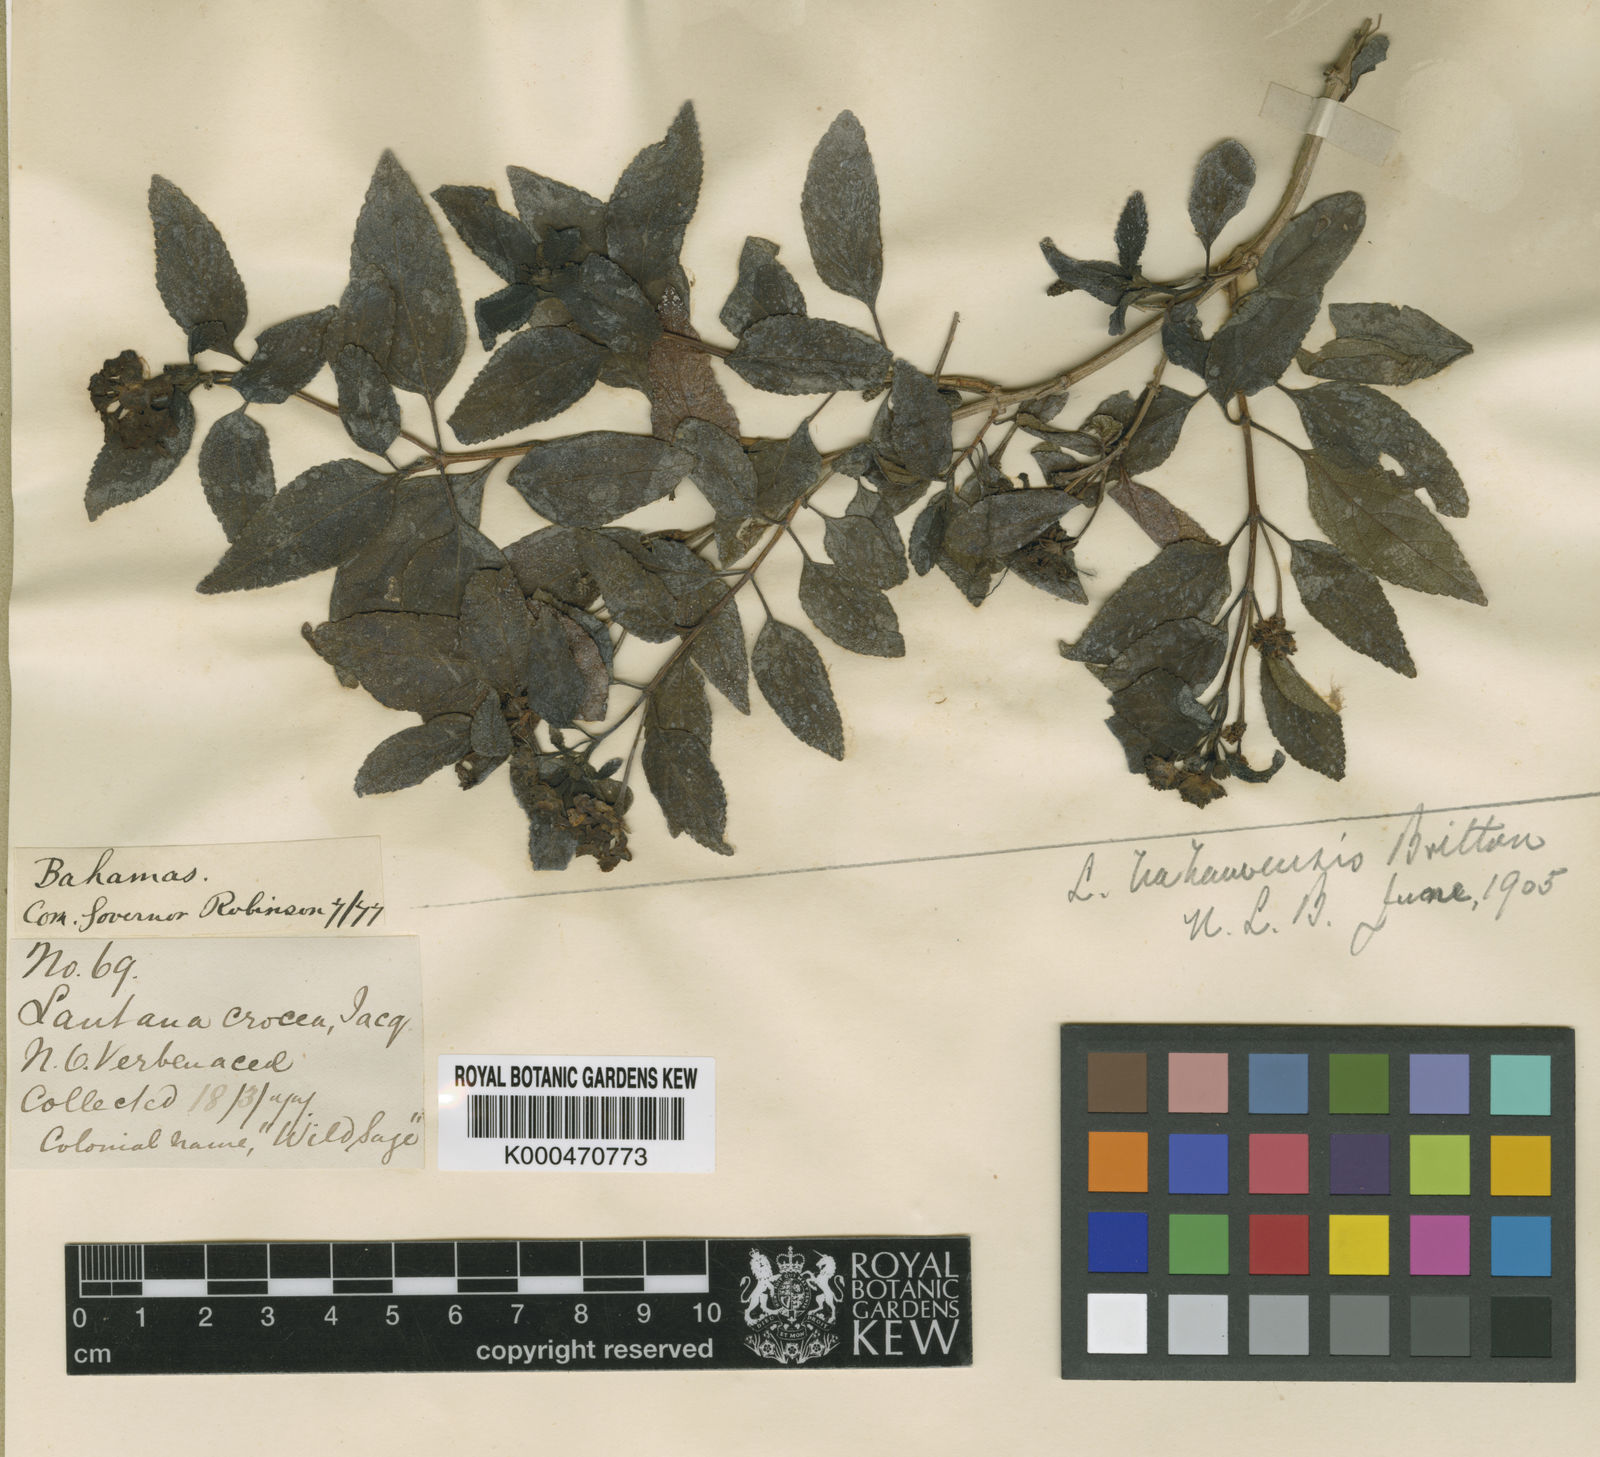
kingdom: Plantae
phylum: Tracheophyta
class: Magnoliopsida
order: Lamiales
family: Verbenaceae
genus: Lantana
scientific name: Lantana bahamensis
